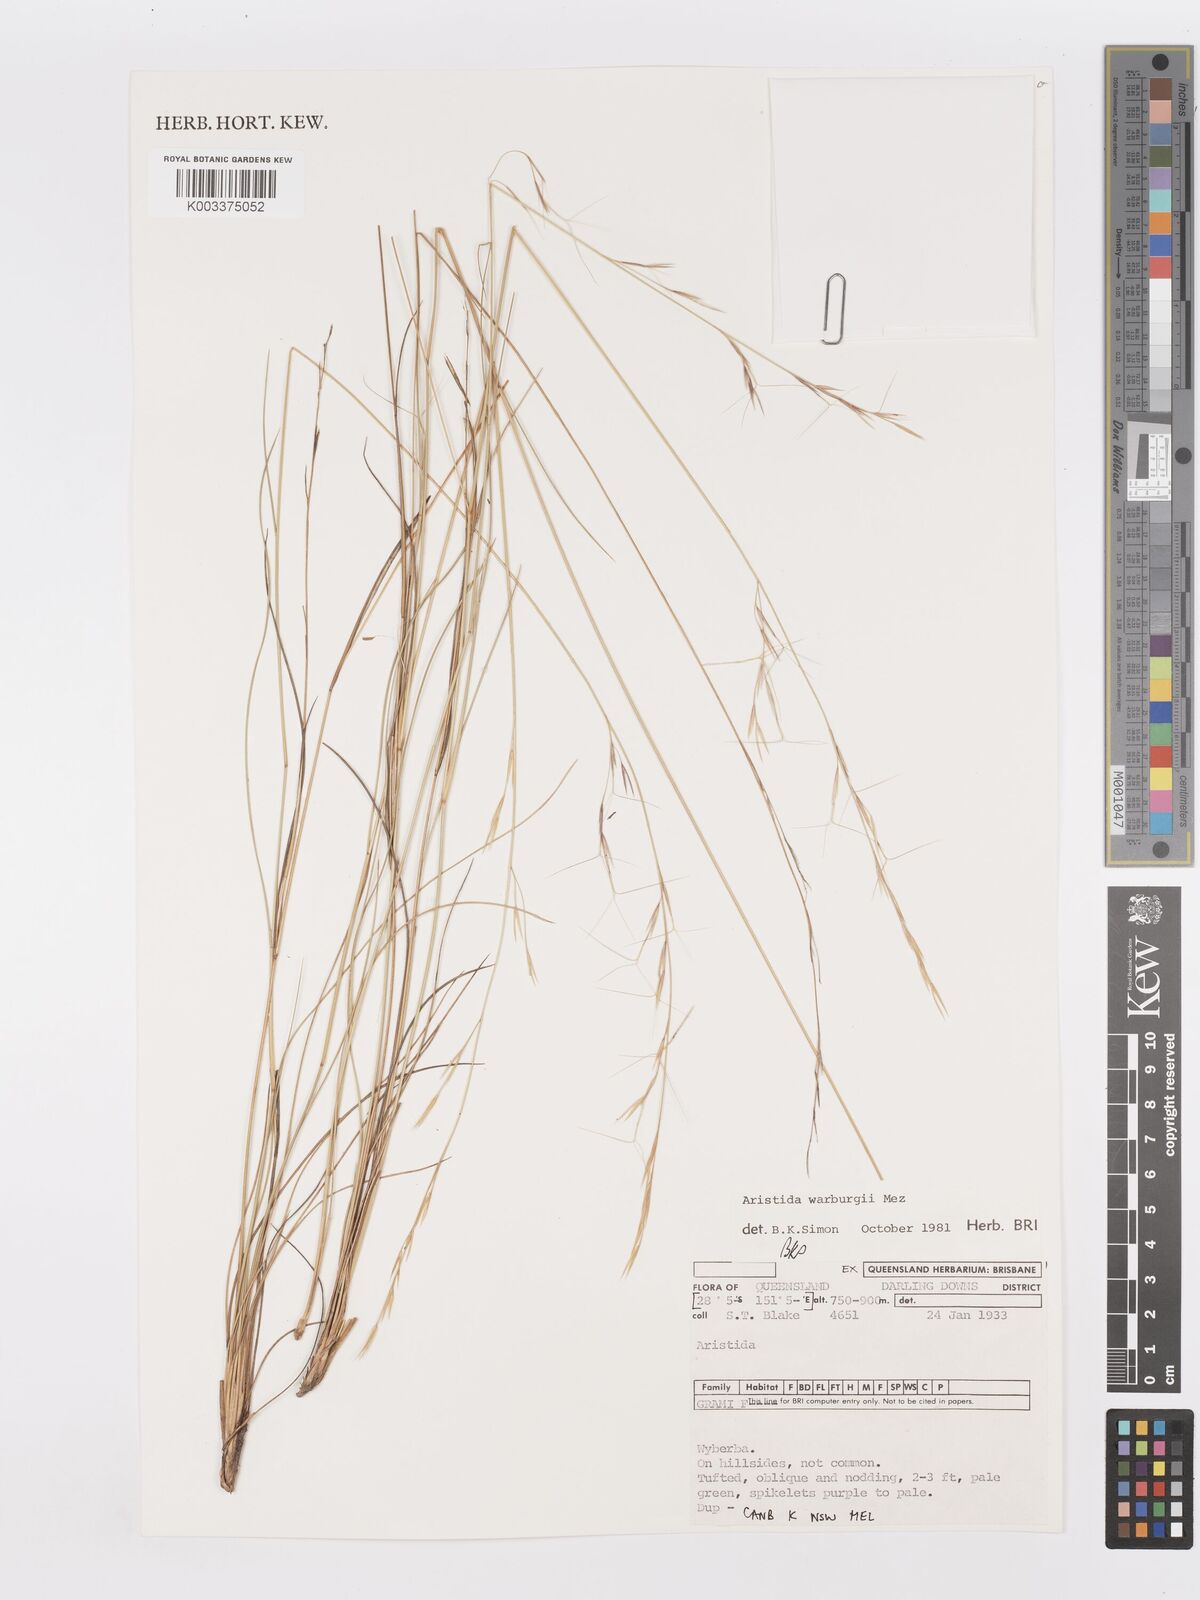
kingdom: Plantae
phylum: Tracheophyta
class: Liliopsida
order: Poales
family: Poaceae
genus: Aristida
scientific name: Aristida warburgii
